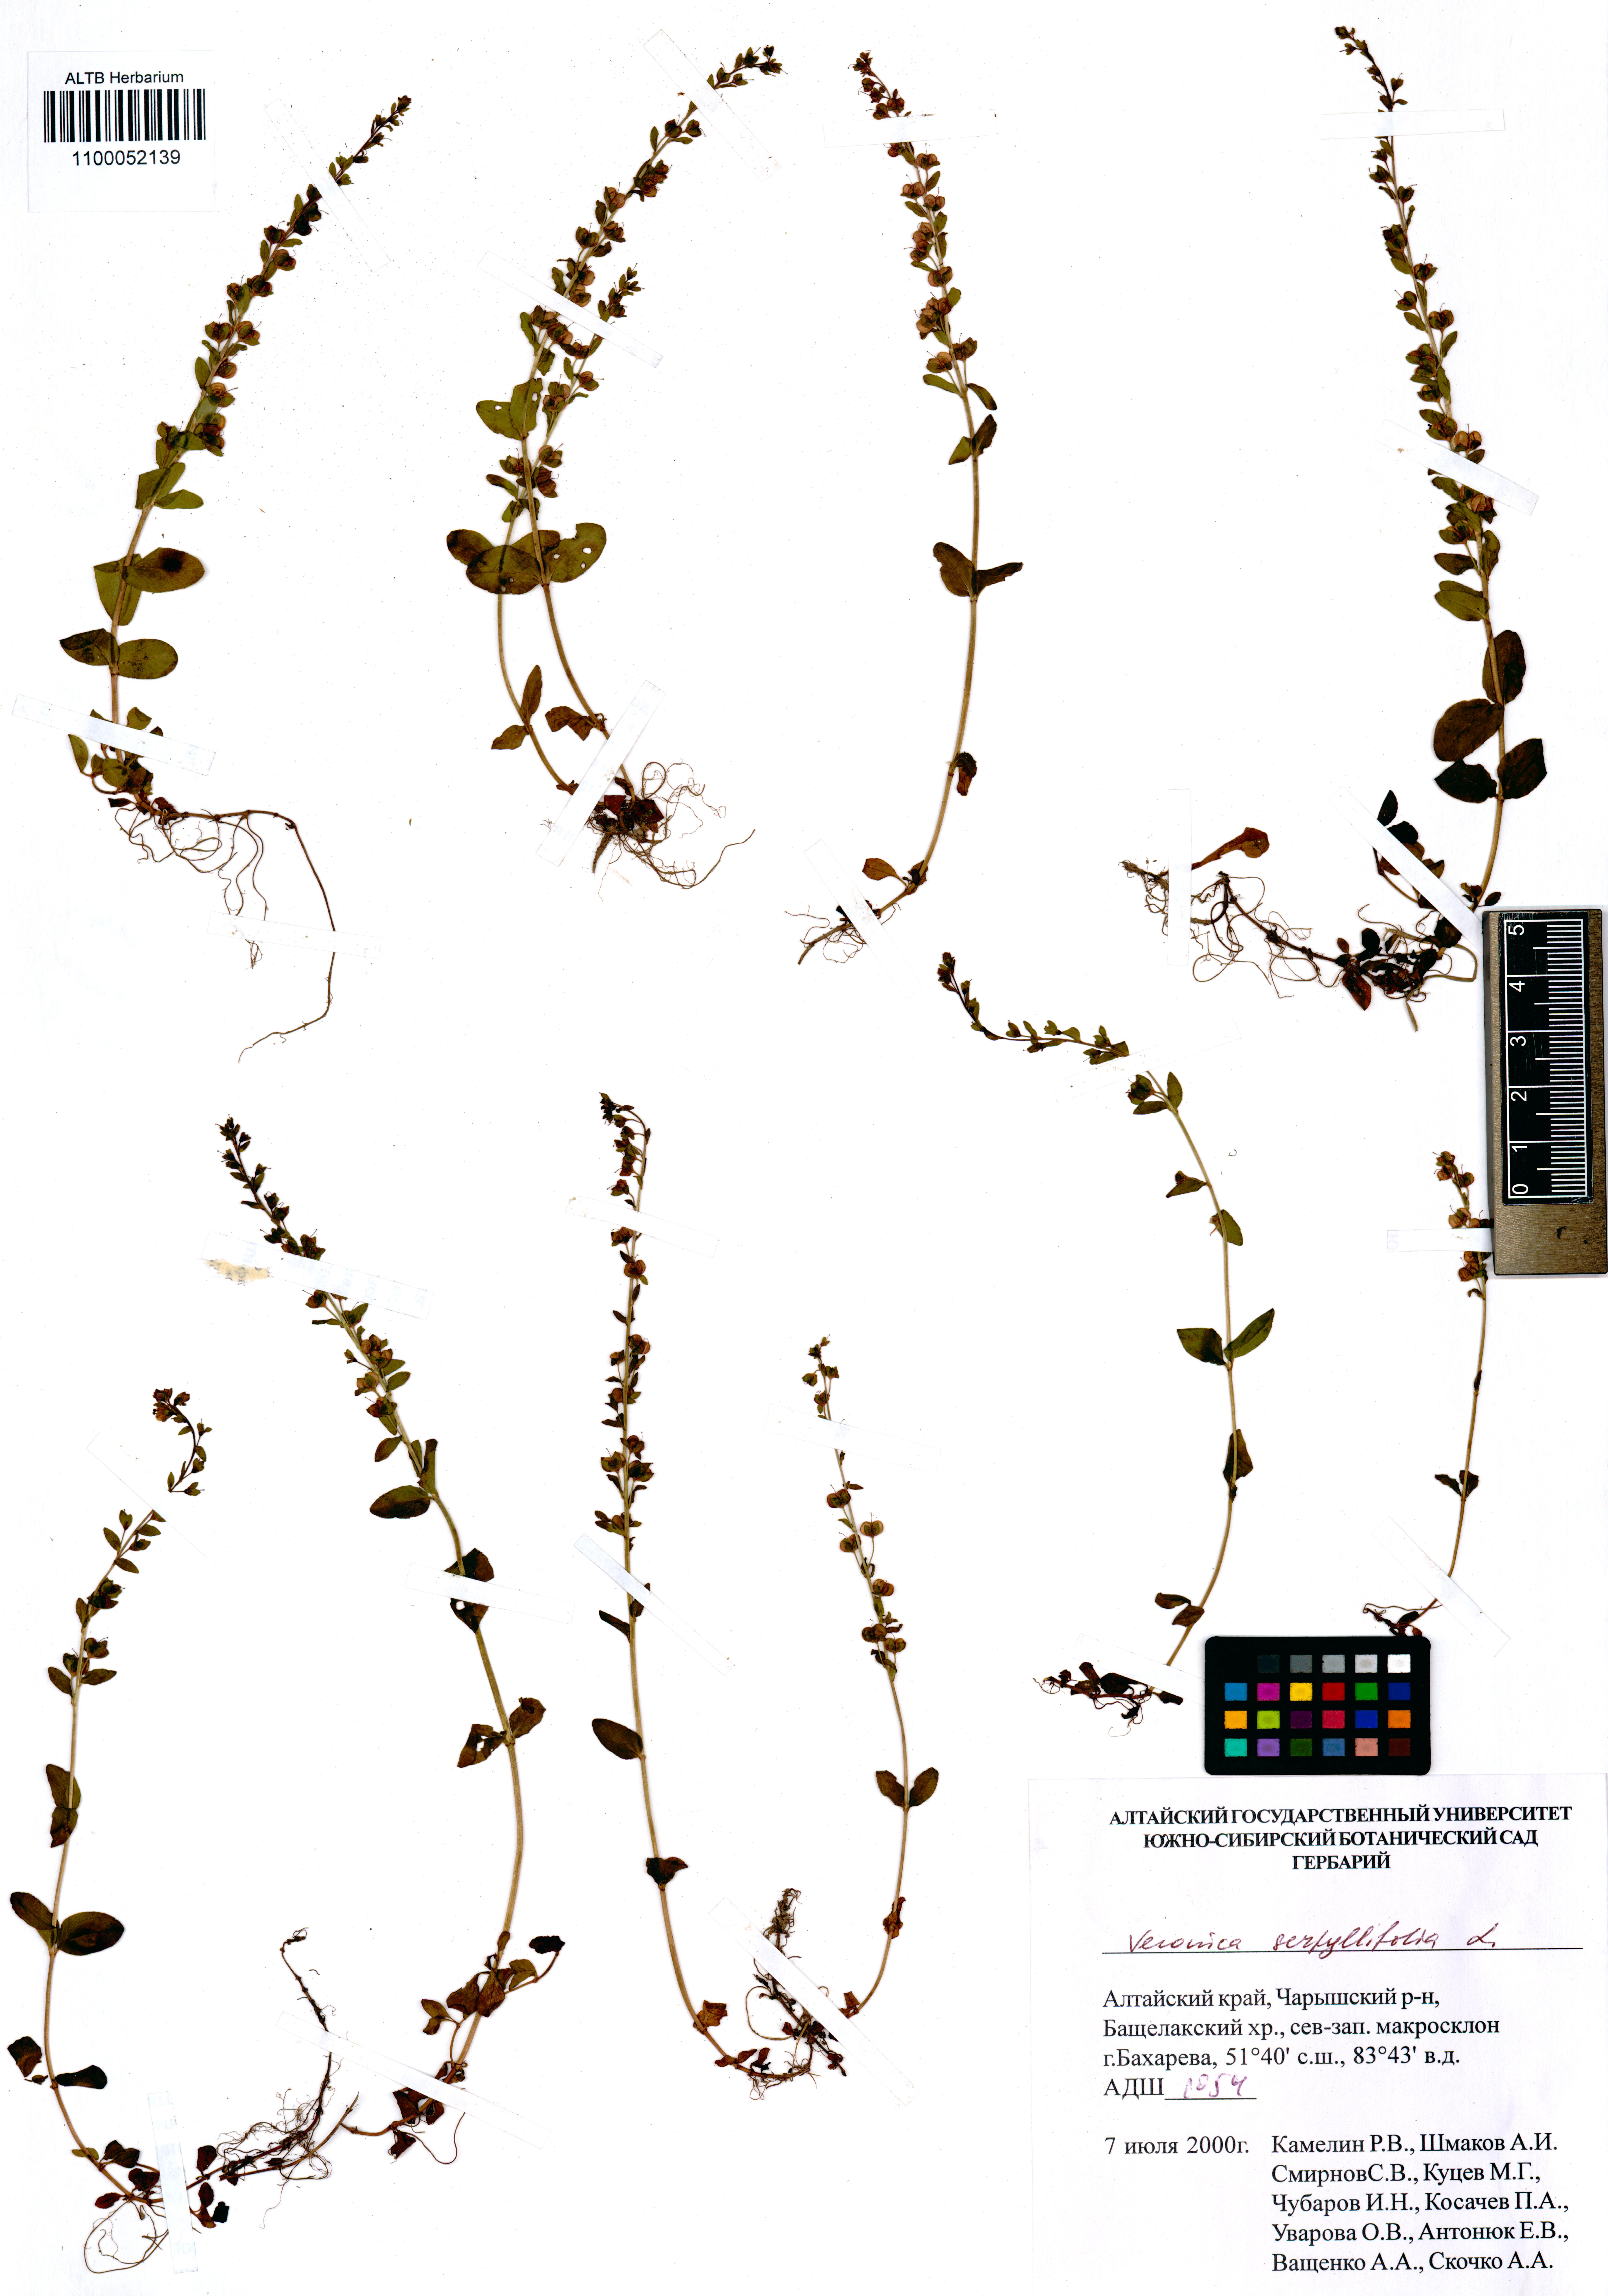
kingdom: Plantae
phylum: Tracheophyta
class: Magnoliopsida
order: Lamiales
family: Plantaginaceae
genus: Veronica
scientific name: Veronica serpyllifolia
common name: Thyme-leaved speedwell
